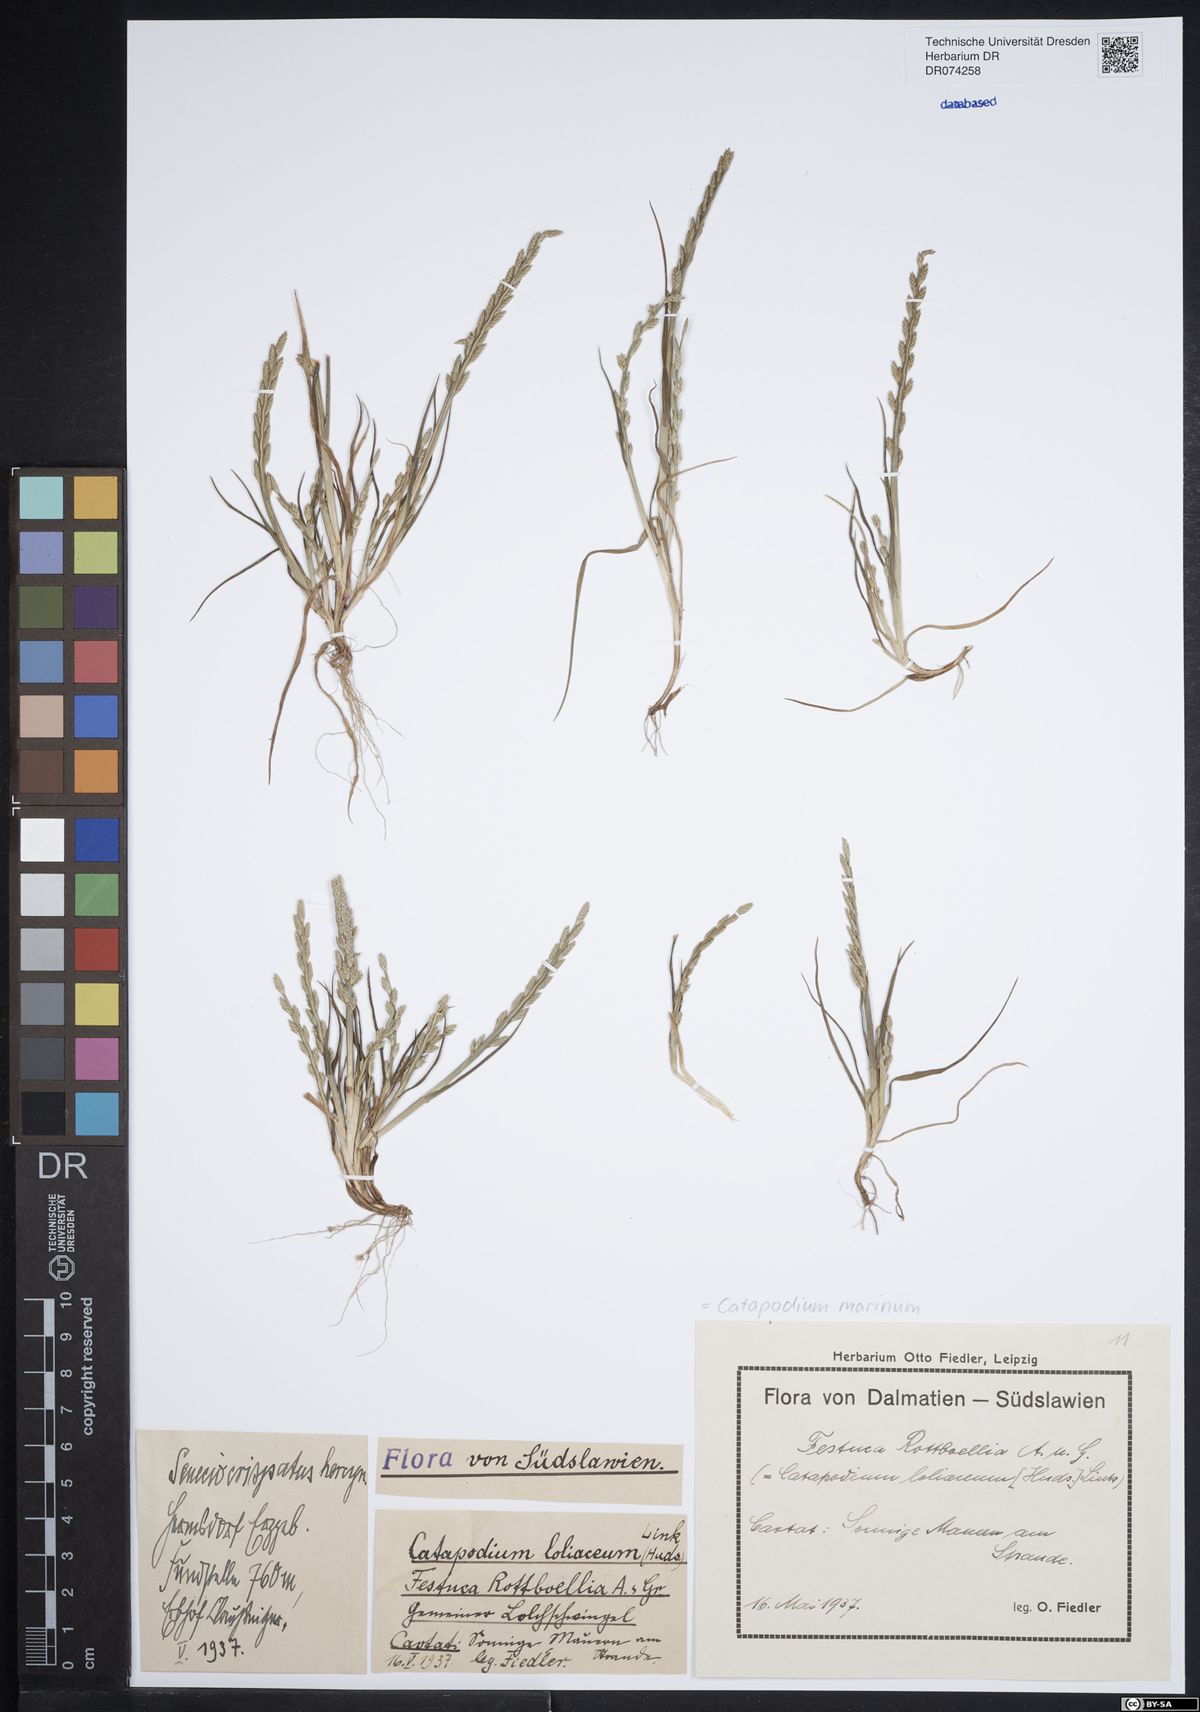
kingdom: Plantae
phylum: Tracheophyta
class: Liliopsida
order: Poales
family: Poaceae
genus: Catapodium
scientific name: Catapodium marinum
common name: Sea fern-grass
